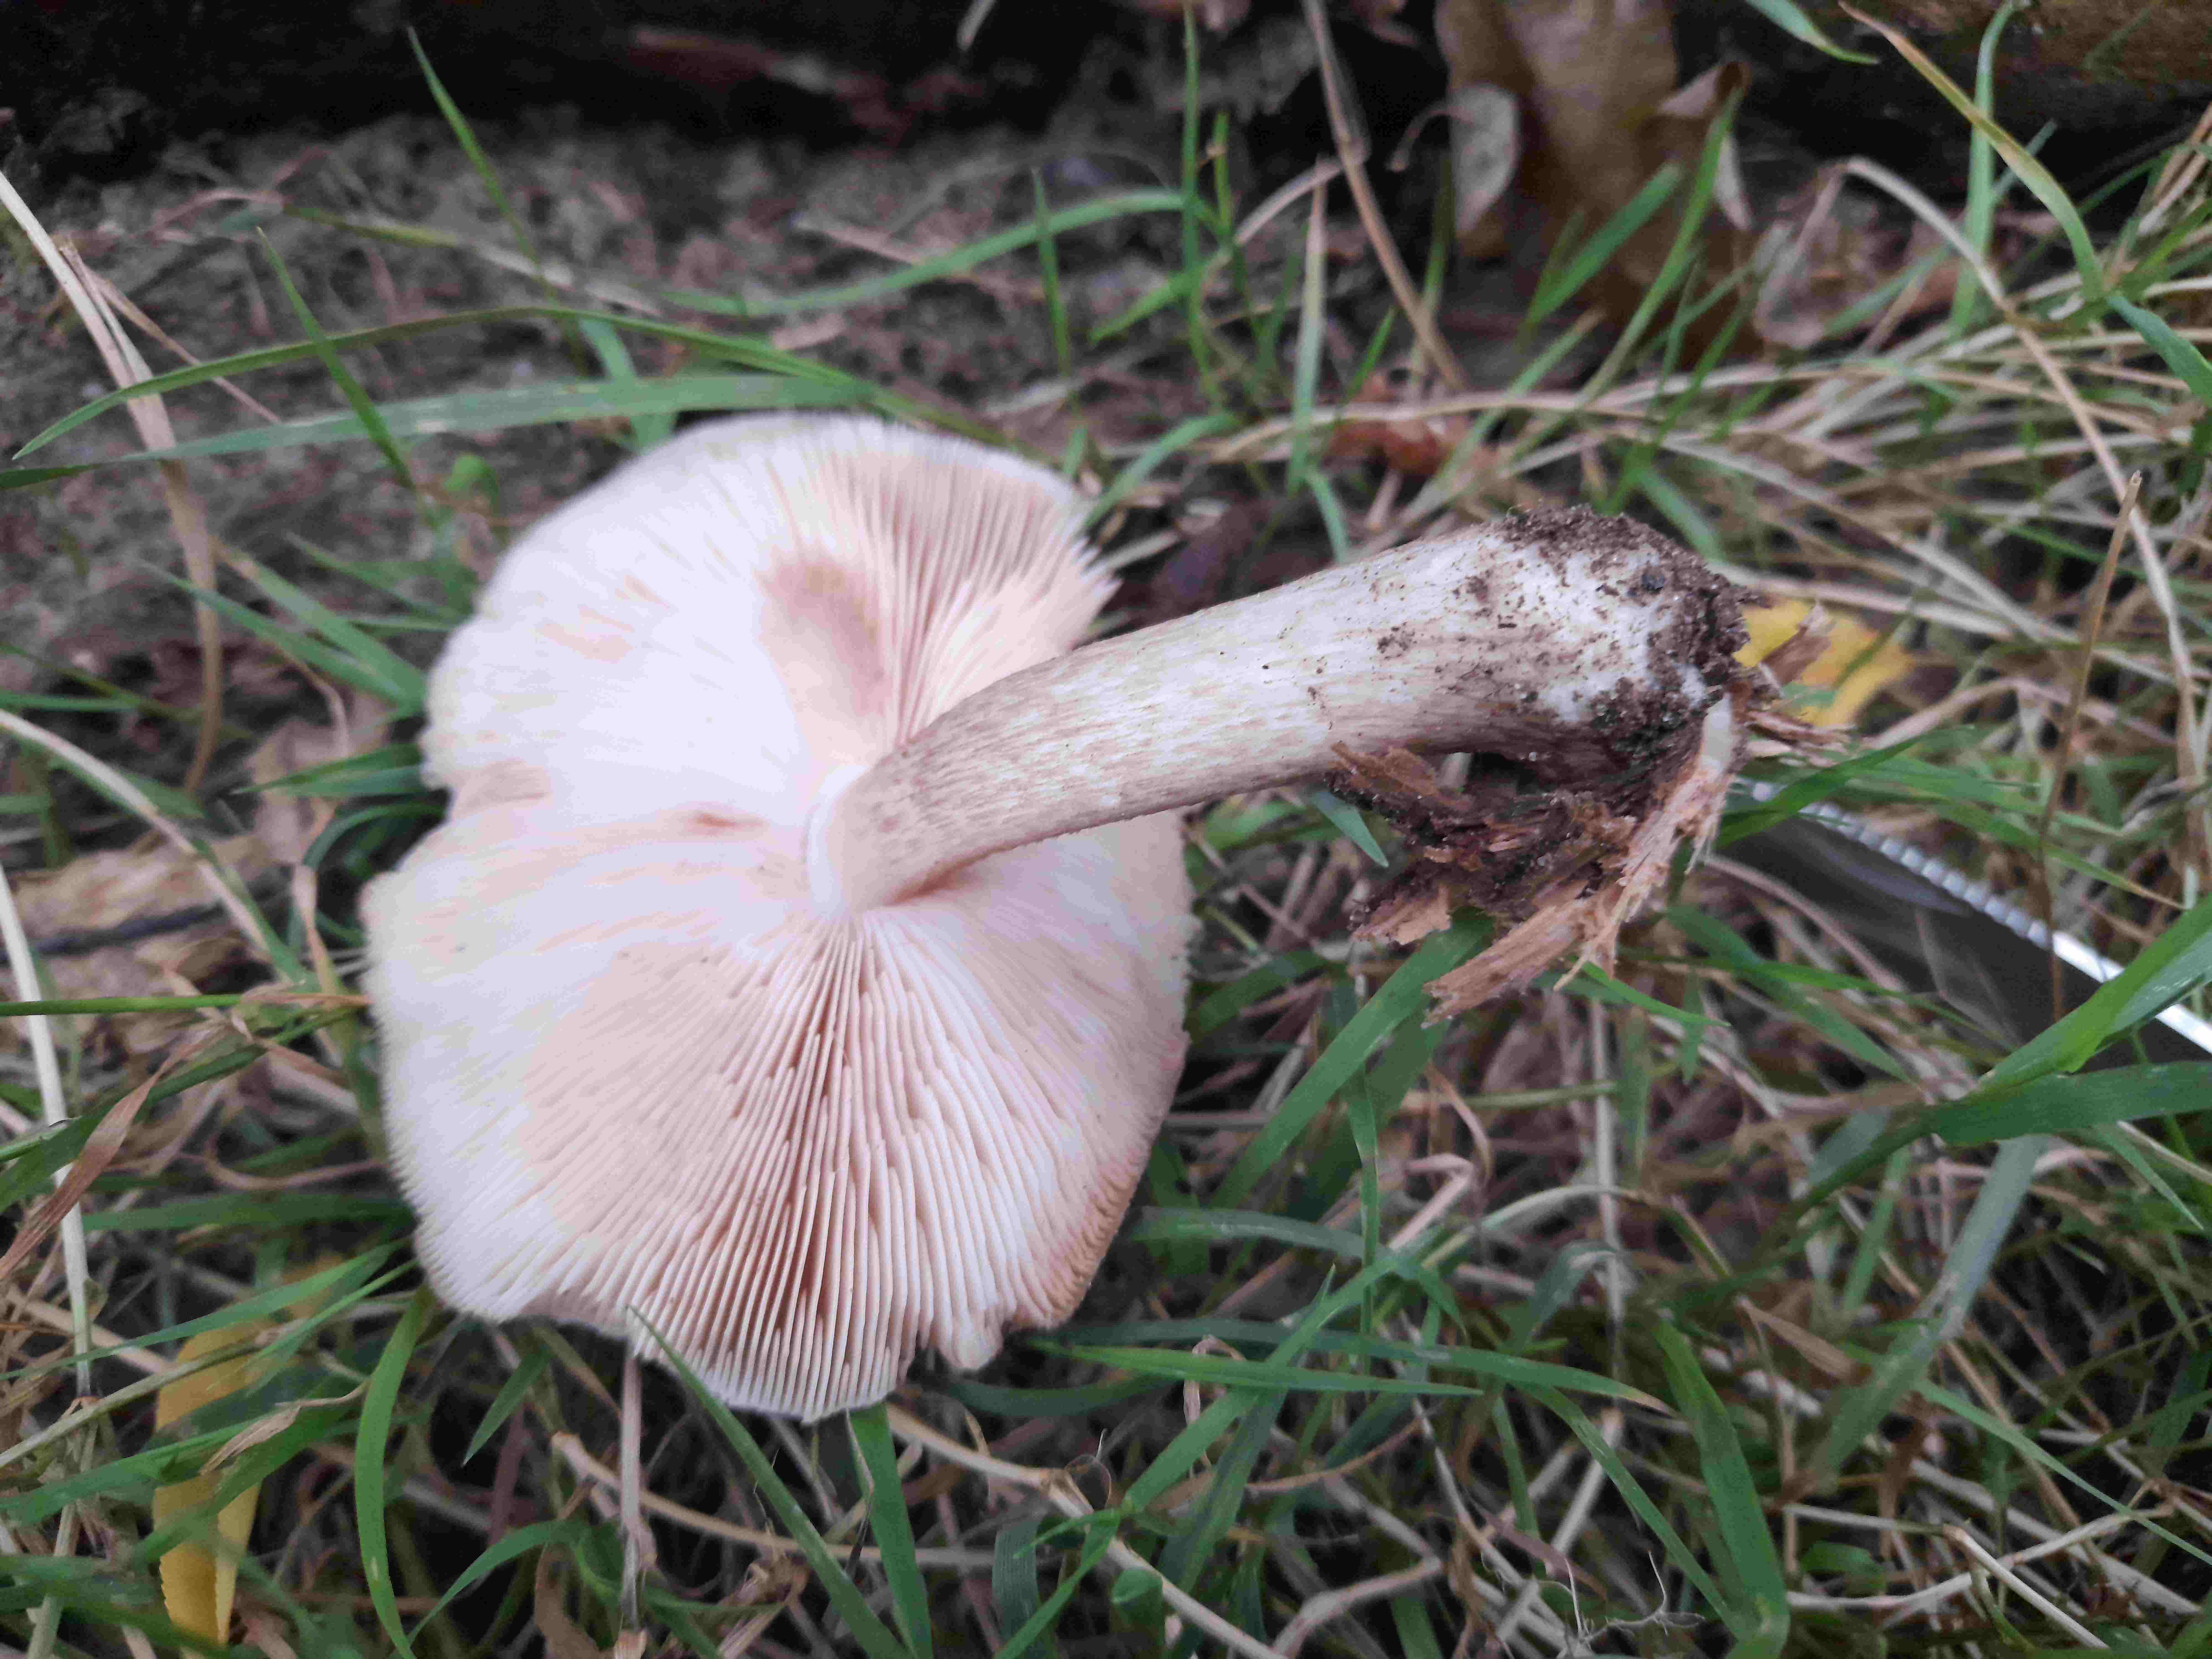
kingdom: Fungi
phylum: Basidiomycota
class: Agaricomycetes
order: Agaricales
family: Pluteaceae
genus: Pluteus
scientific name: Pluteus cervinus
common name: sodfarvet skærmhat
